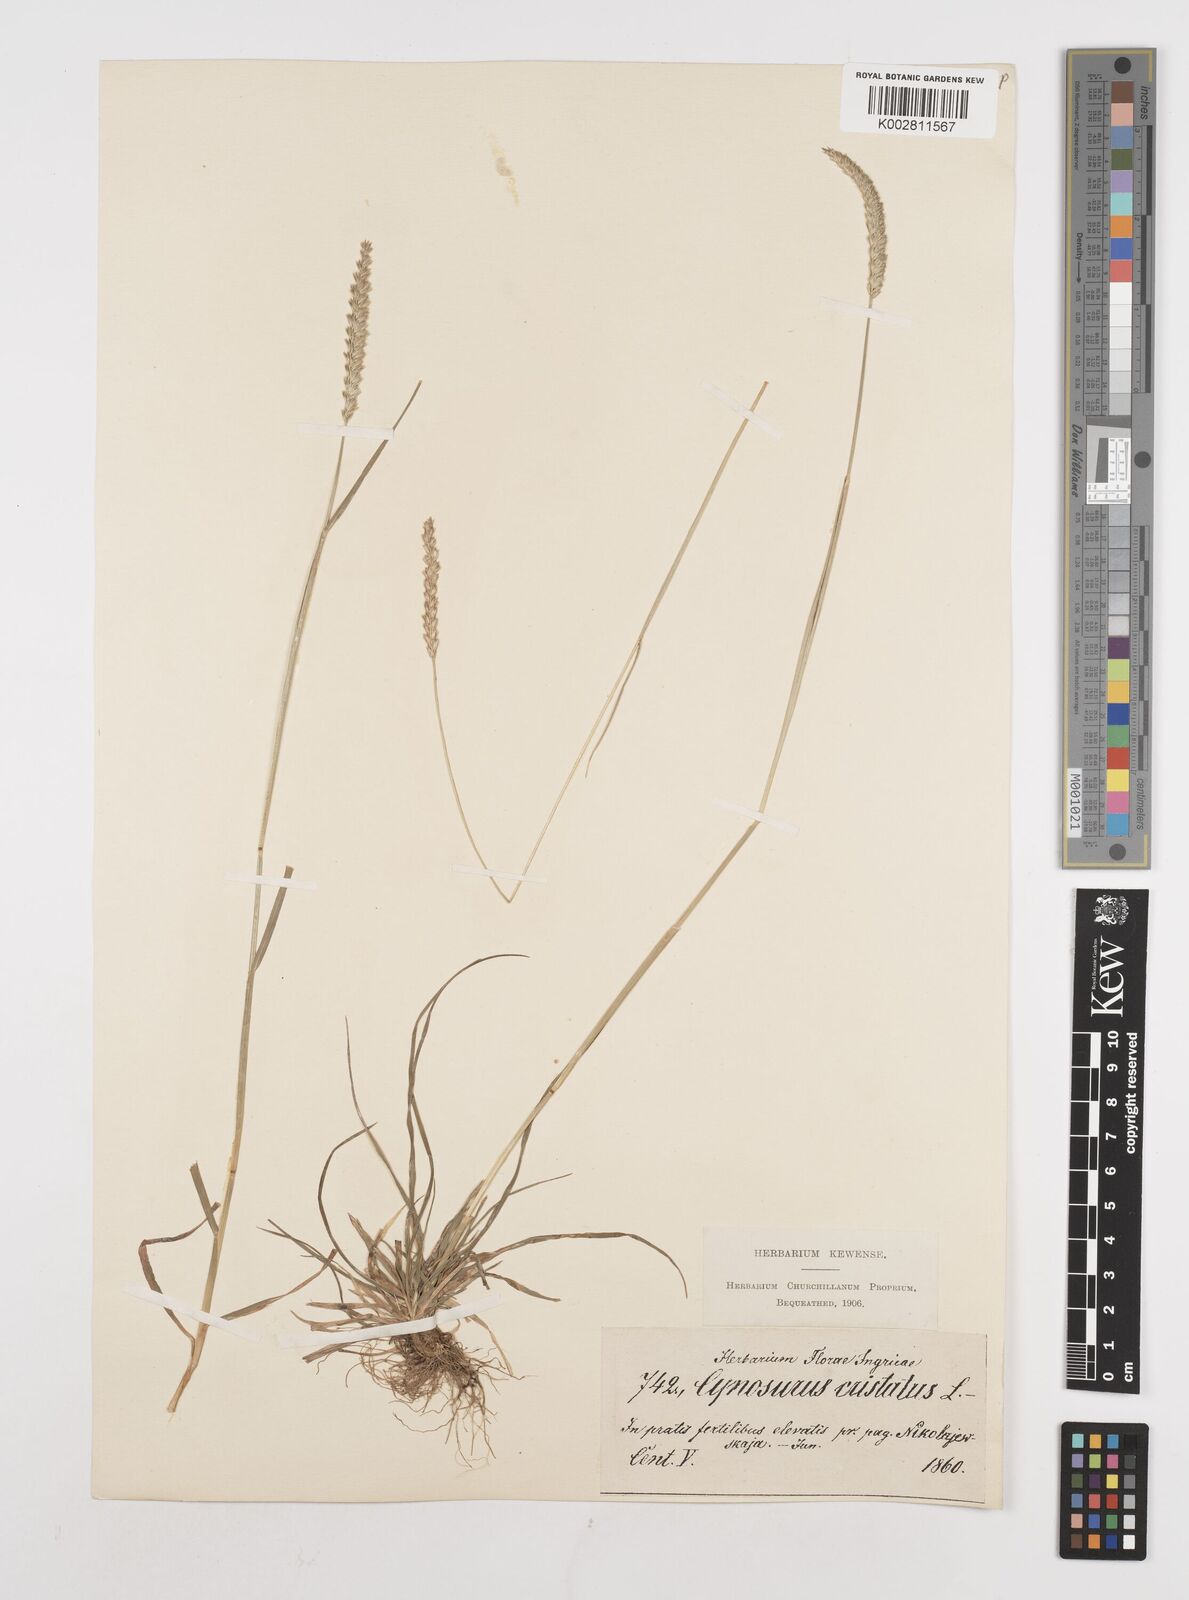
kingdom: Plantae
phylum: Tracheophyta
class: Liliopsida
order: Poales
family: Poaceae
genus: Cynosurus
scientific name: Cynosurus cristatus
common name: Crested dog's-tail
